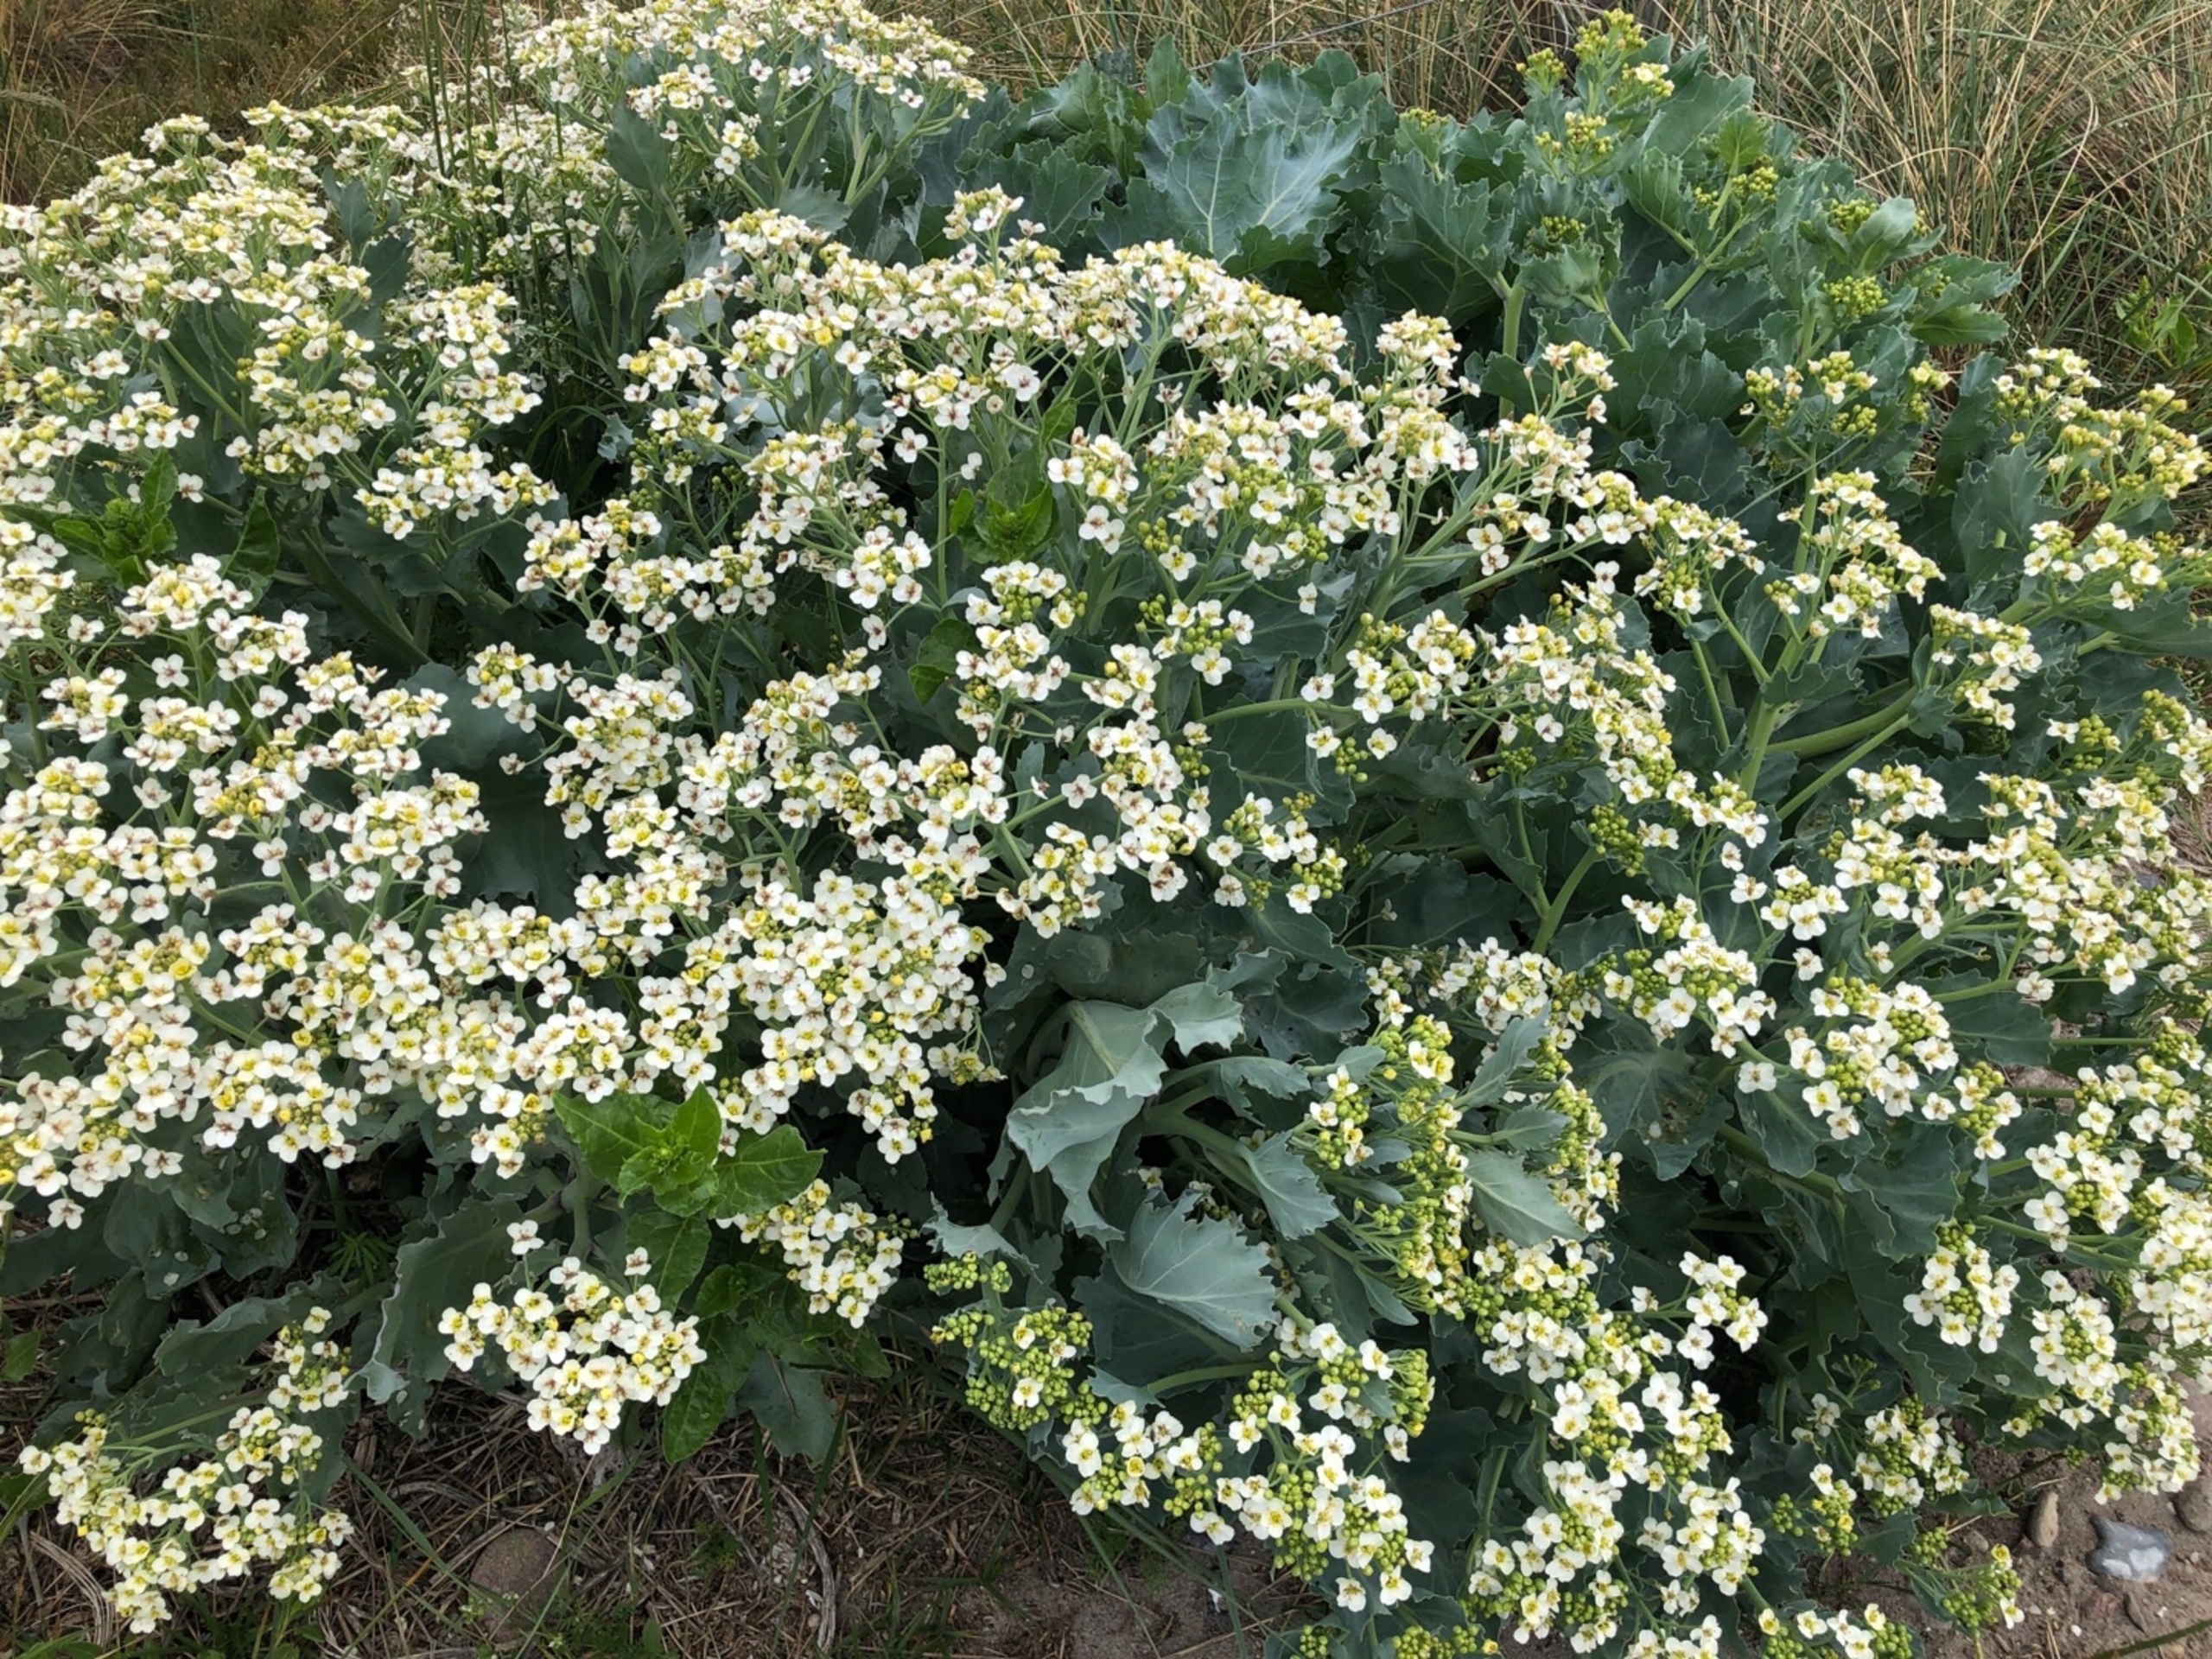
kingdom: Plantae
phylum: Tracheophyta
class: Magnoliopsida
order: Brassicales
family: Brassicaceae
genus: Crambe
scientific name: Crambe maritima
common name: Strandkål
